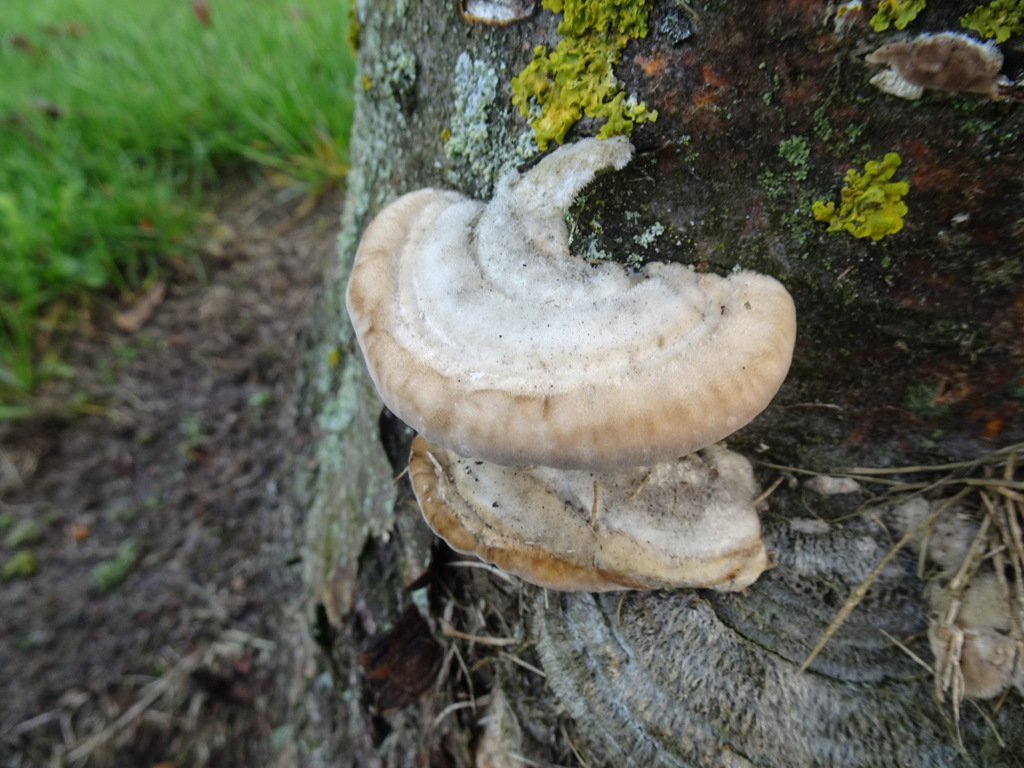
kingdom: Fungi
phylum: Basidiomycota
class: Agaricomycetes
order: Polyporales
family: Polyporaceae
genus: Trametes
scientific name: Trametes hirsuta
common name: håret læderporesvamp
